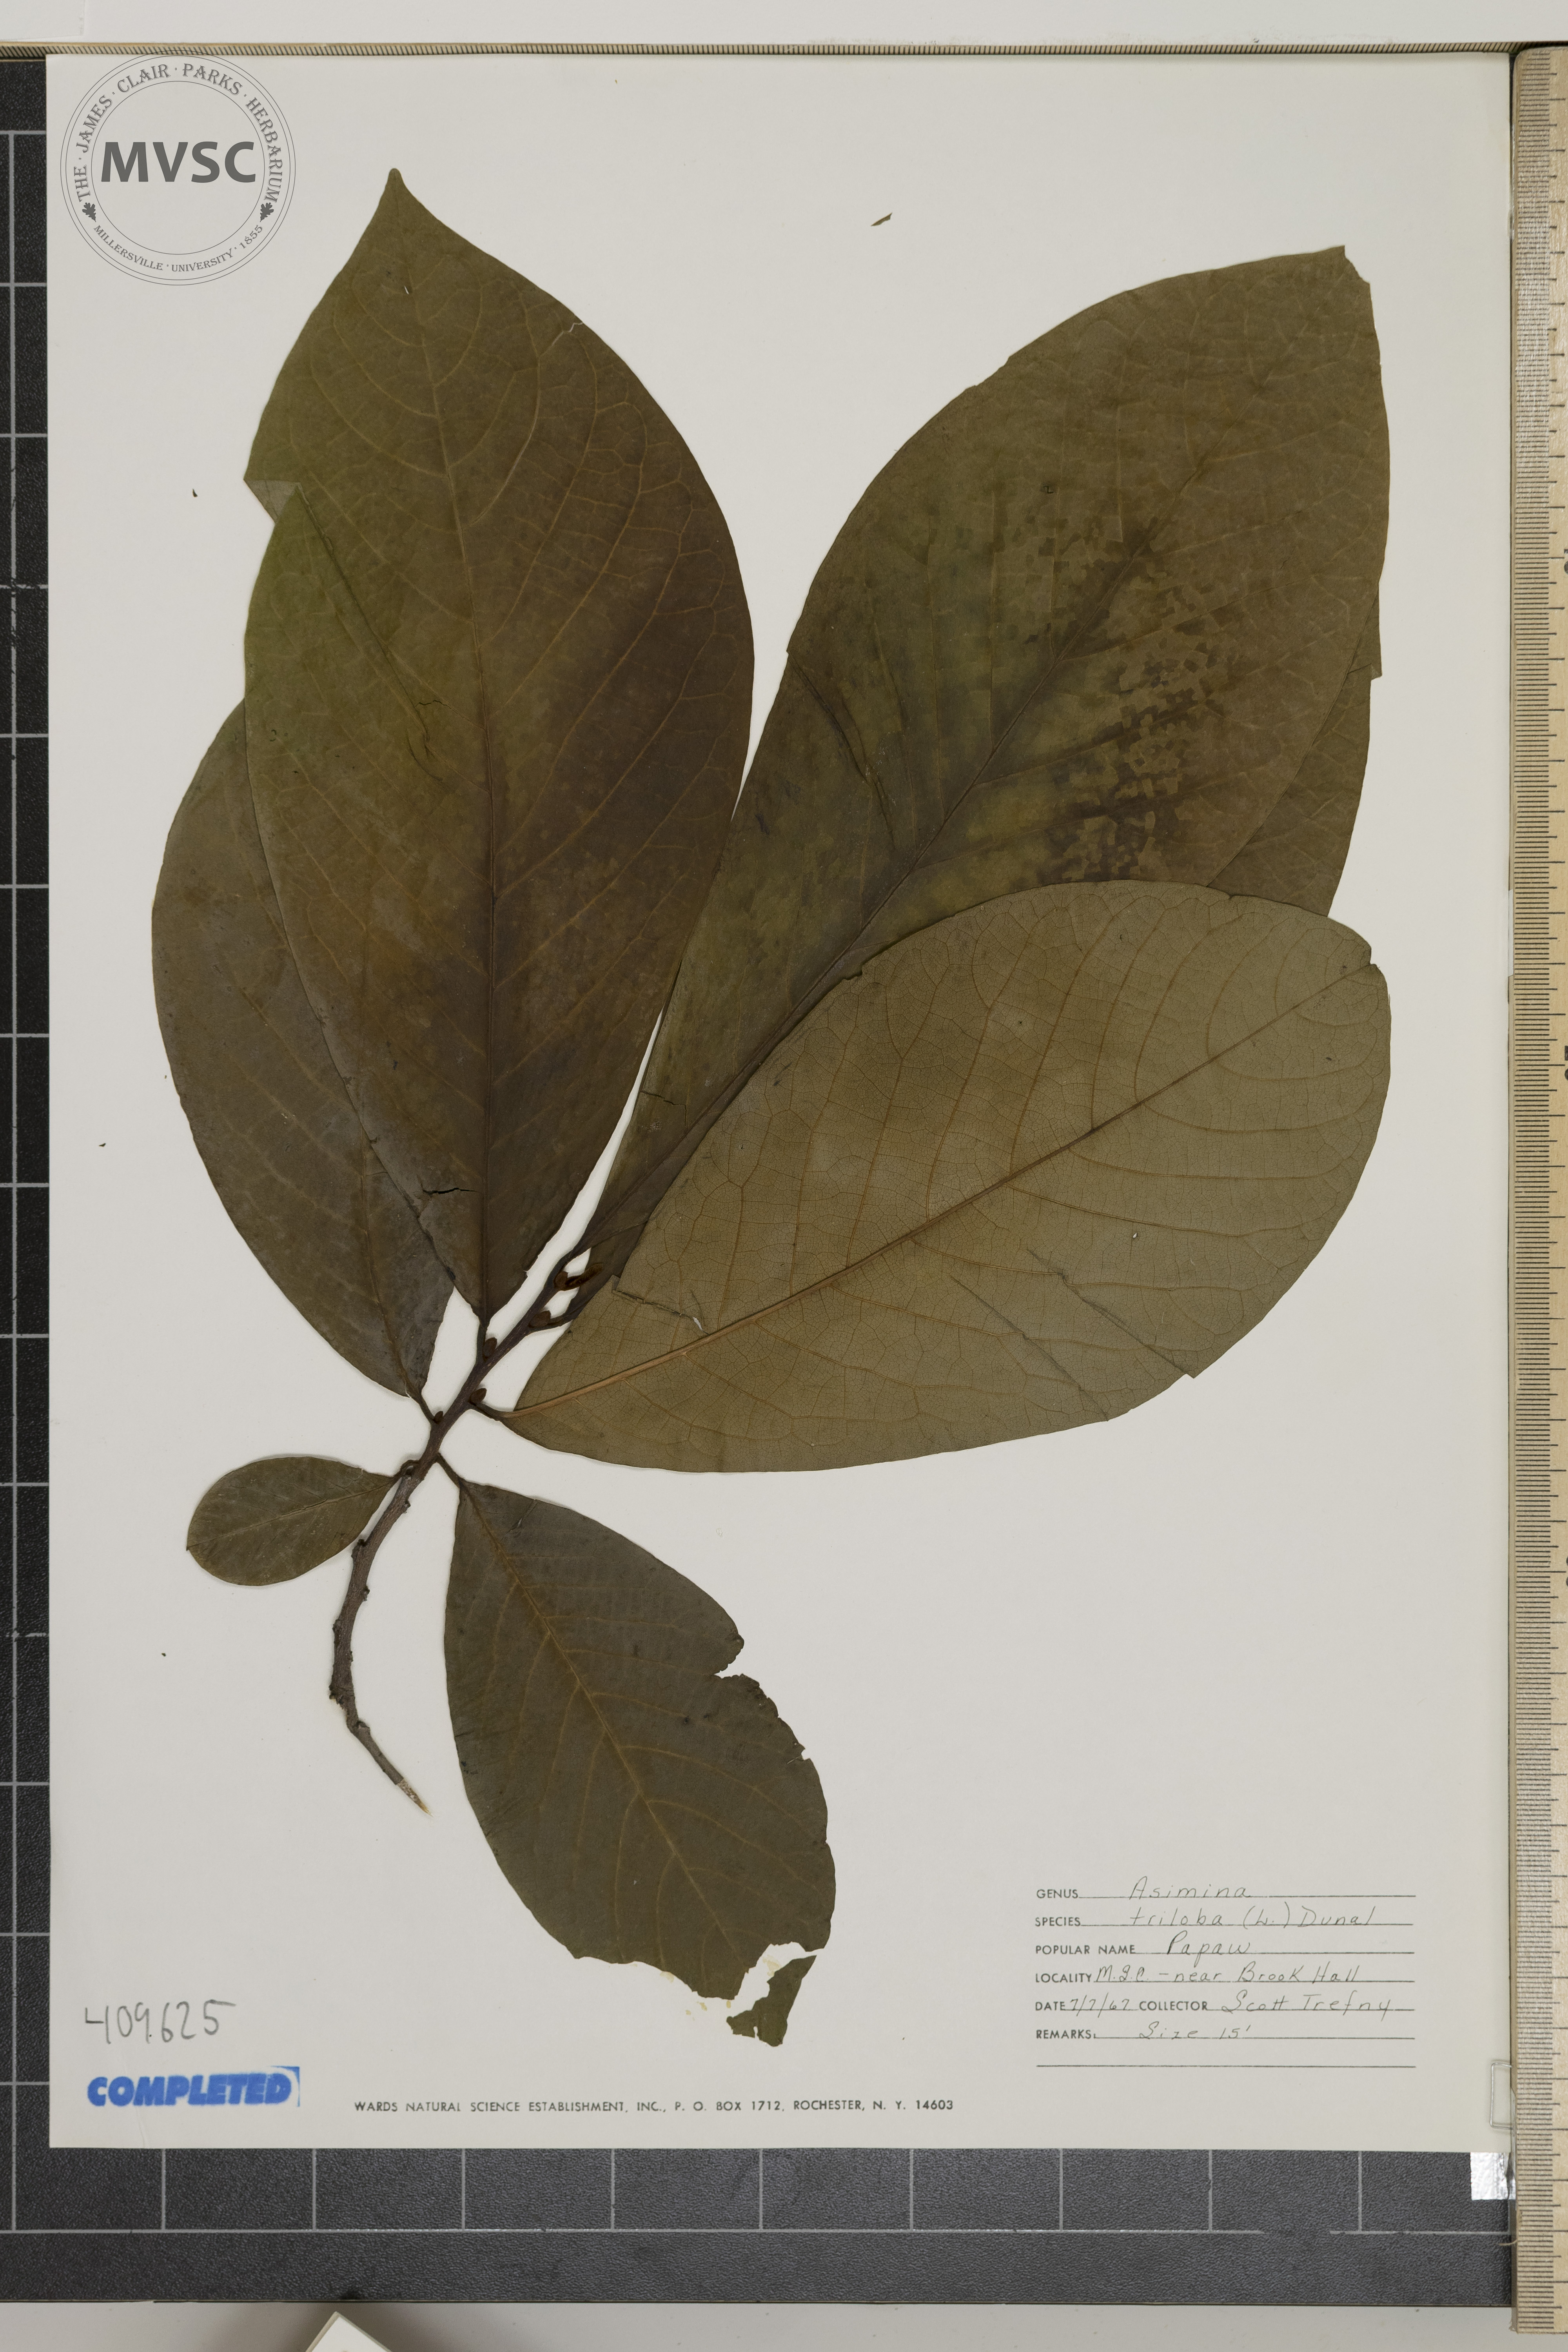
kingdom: Plantae
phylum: Tracheophyta
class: Magnoliopsida
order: Magnoliales
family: Annonaceae
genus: Asimina
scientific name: Asimina triloba
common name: Dog-banana
